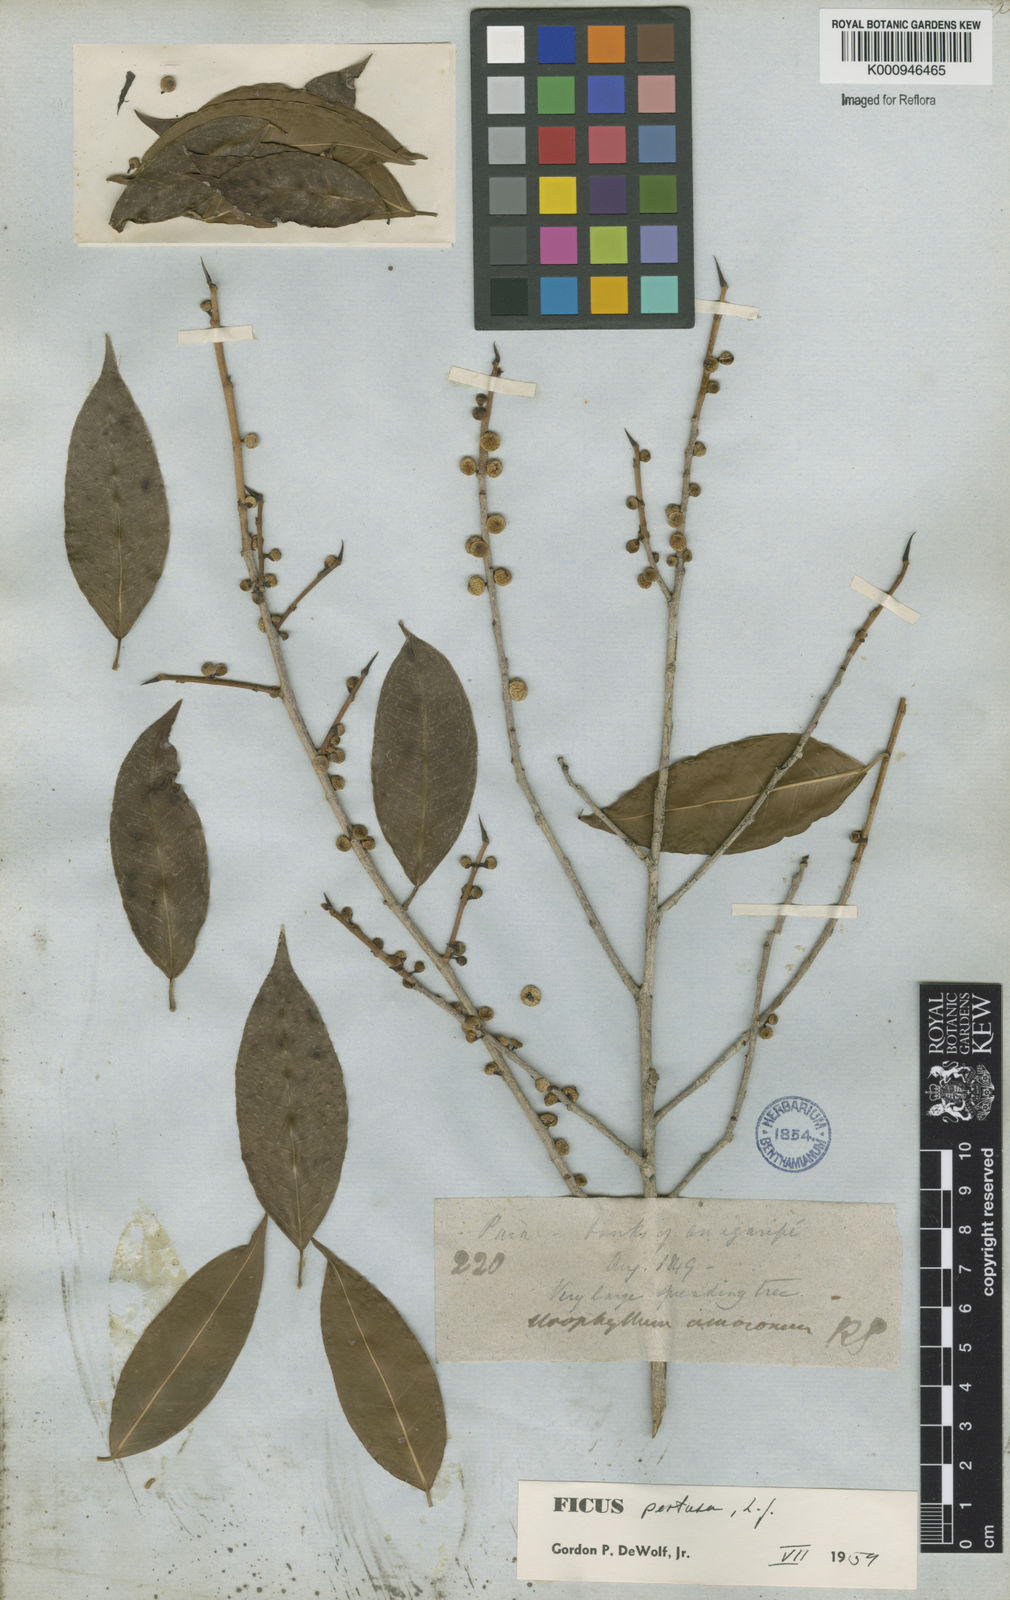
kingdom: Plantae
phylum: Tracheophyta
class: Magnoliopsida
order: Rosales
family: Moraceae
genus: Ficus
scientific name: Ficus pertusa
